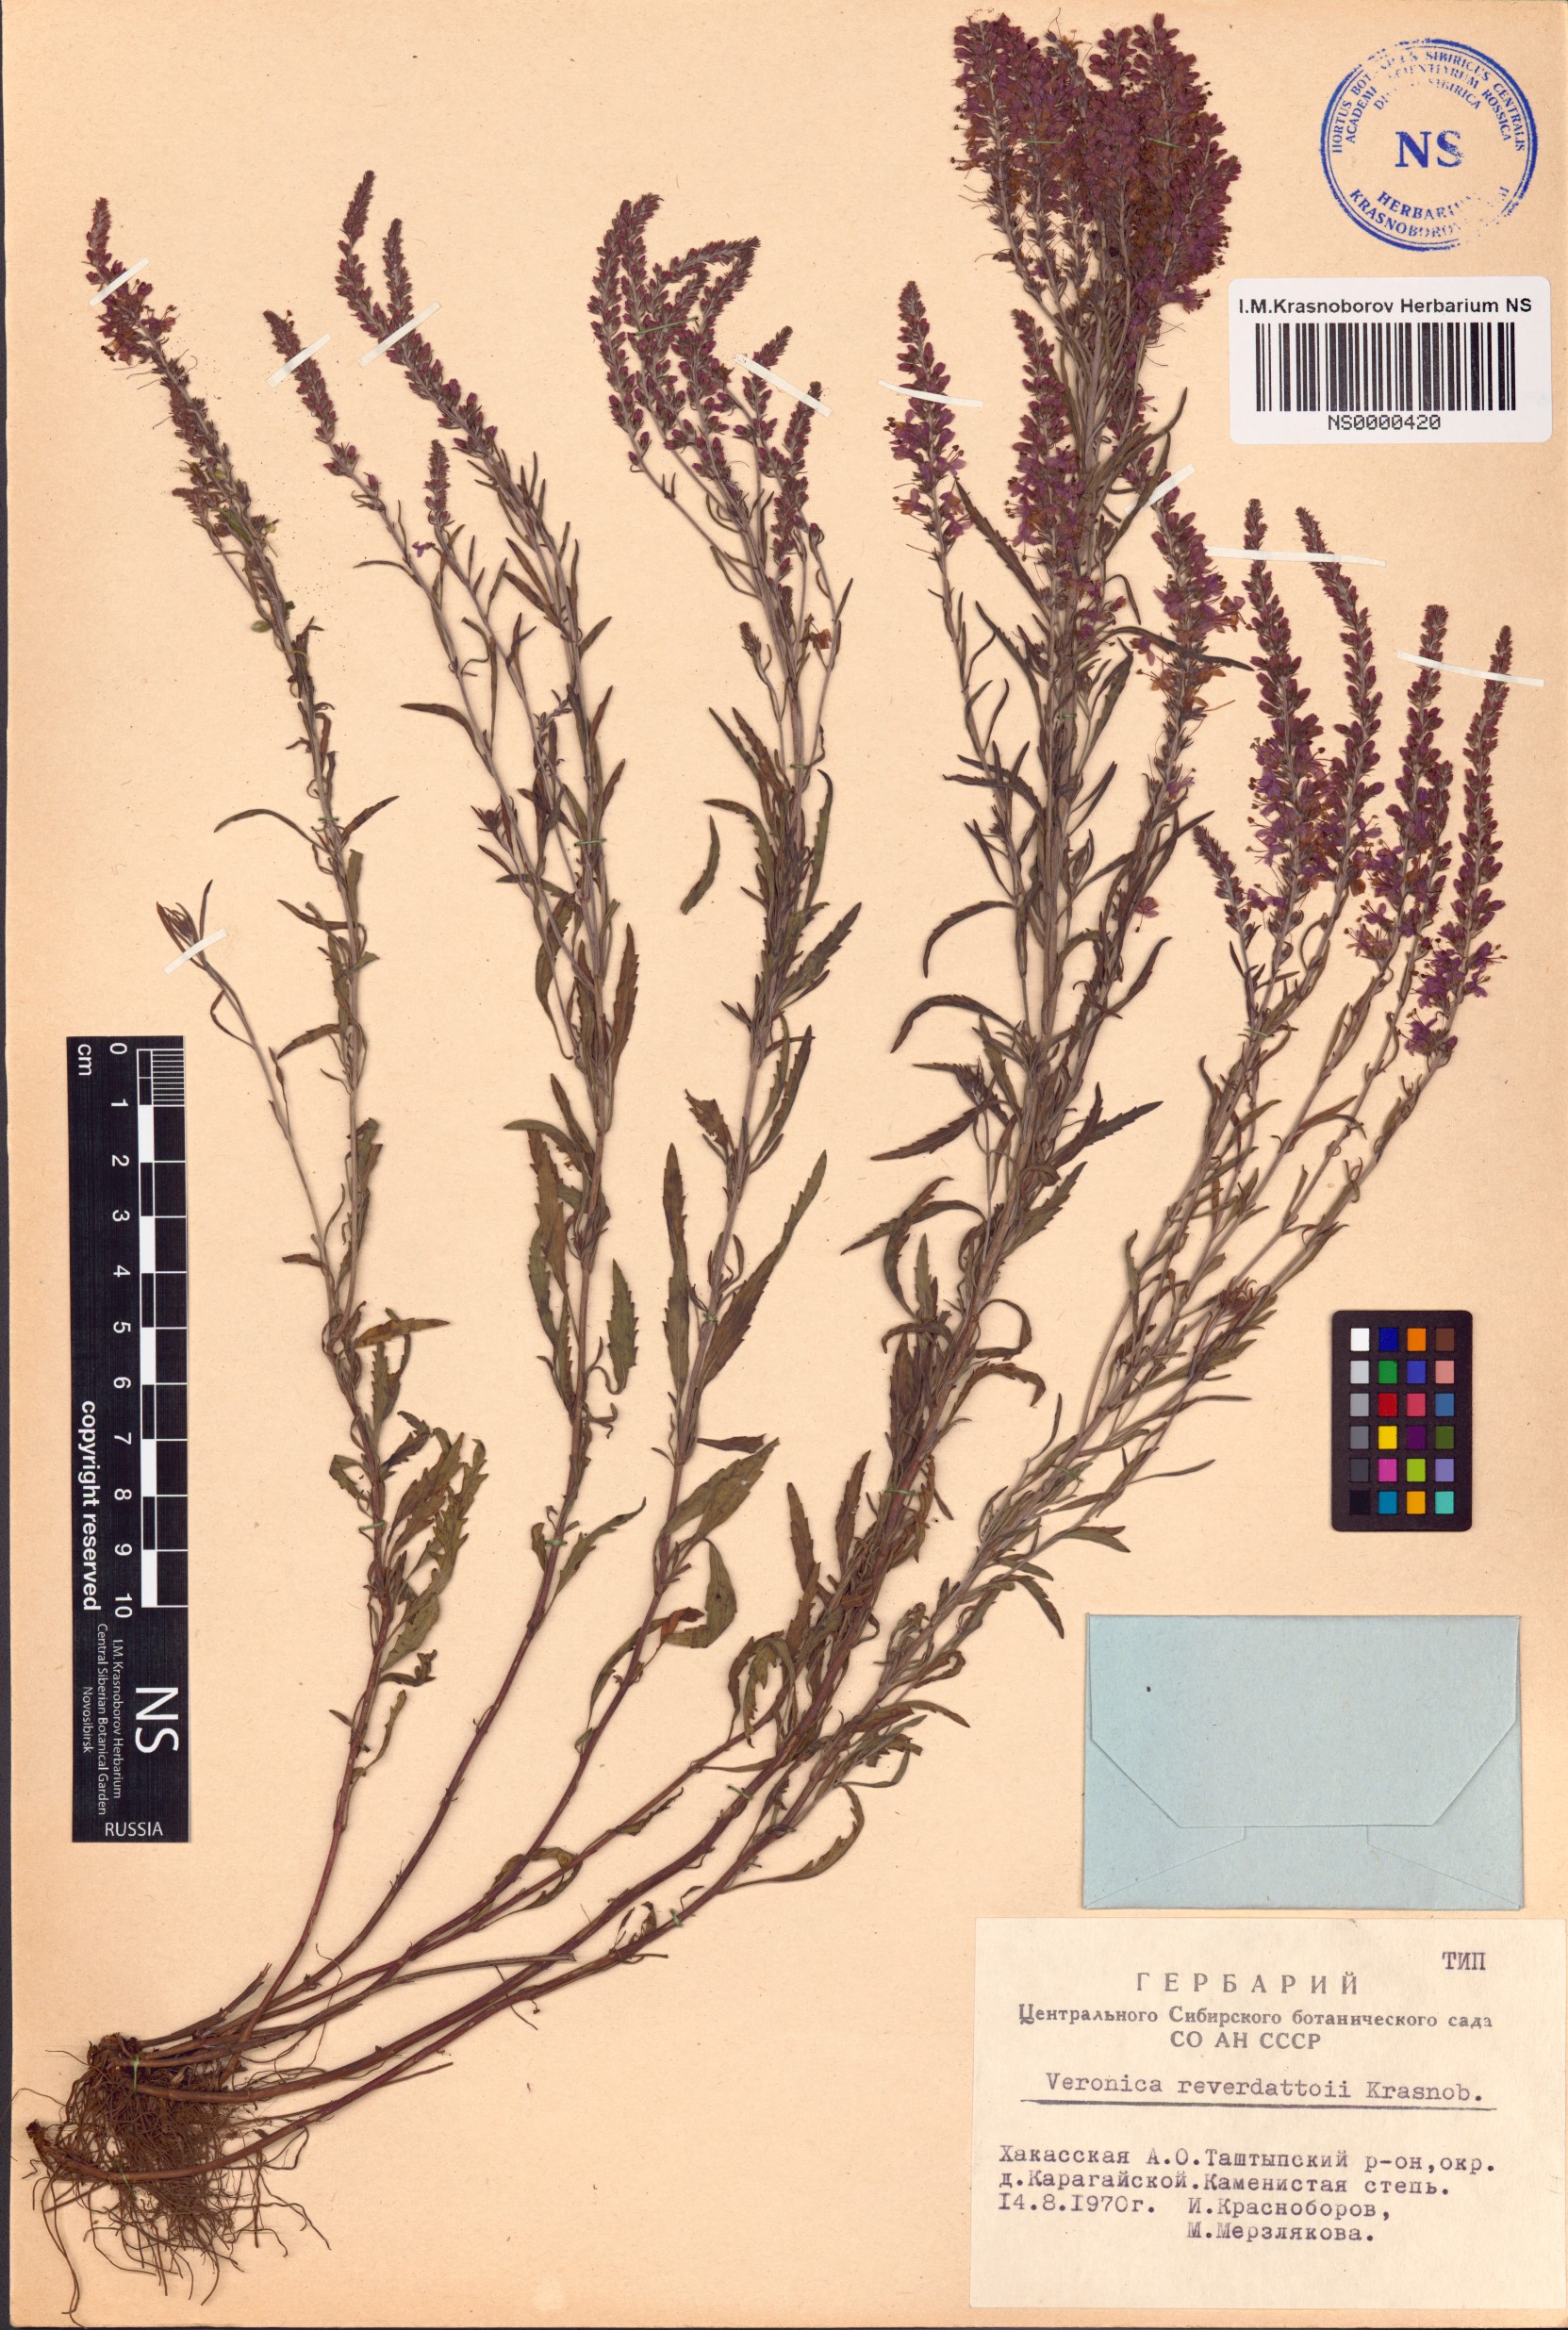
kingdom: Plantae
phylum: Tracheophyta
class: Magnoliopsida
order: Lamiales
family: Plantaginaceae
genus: Veronica
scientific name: Veronica reverdattoi
